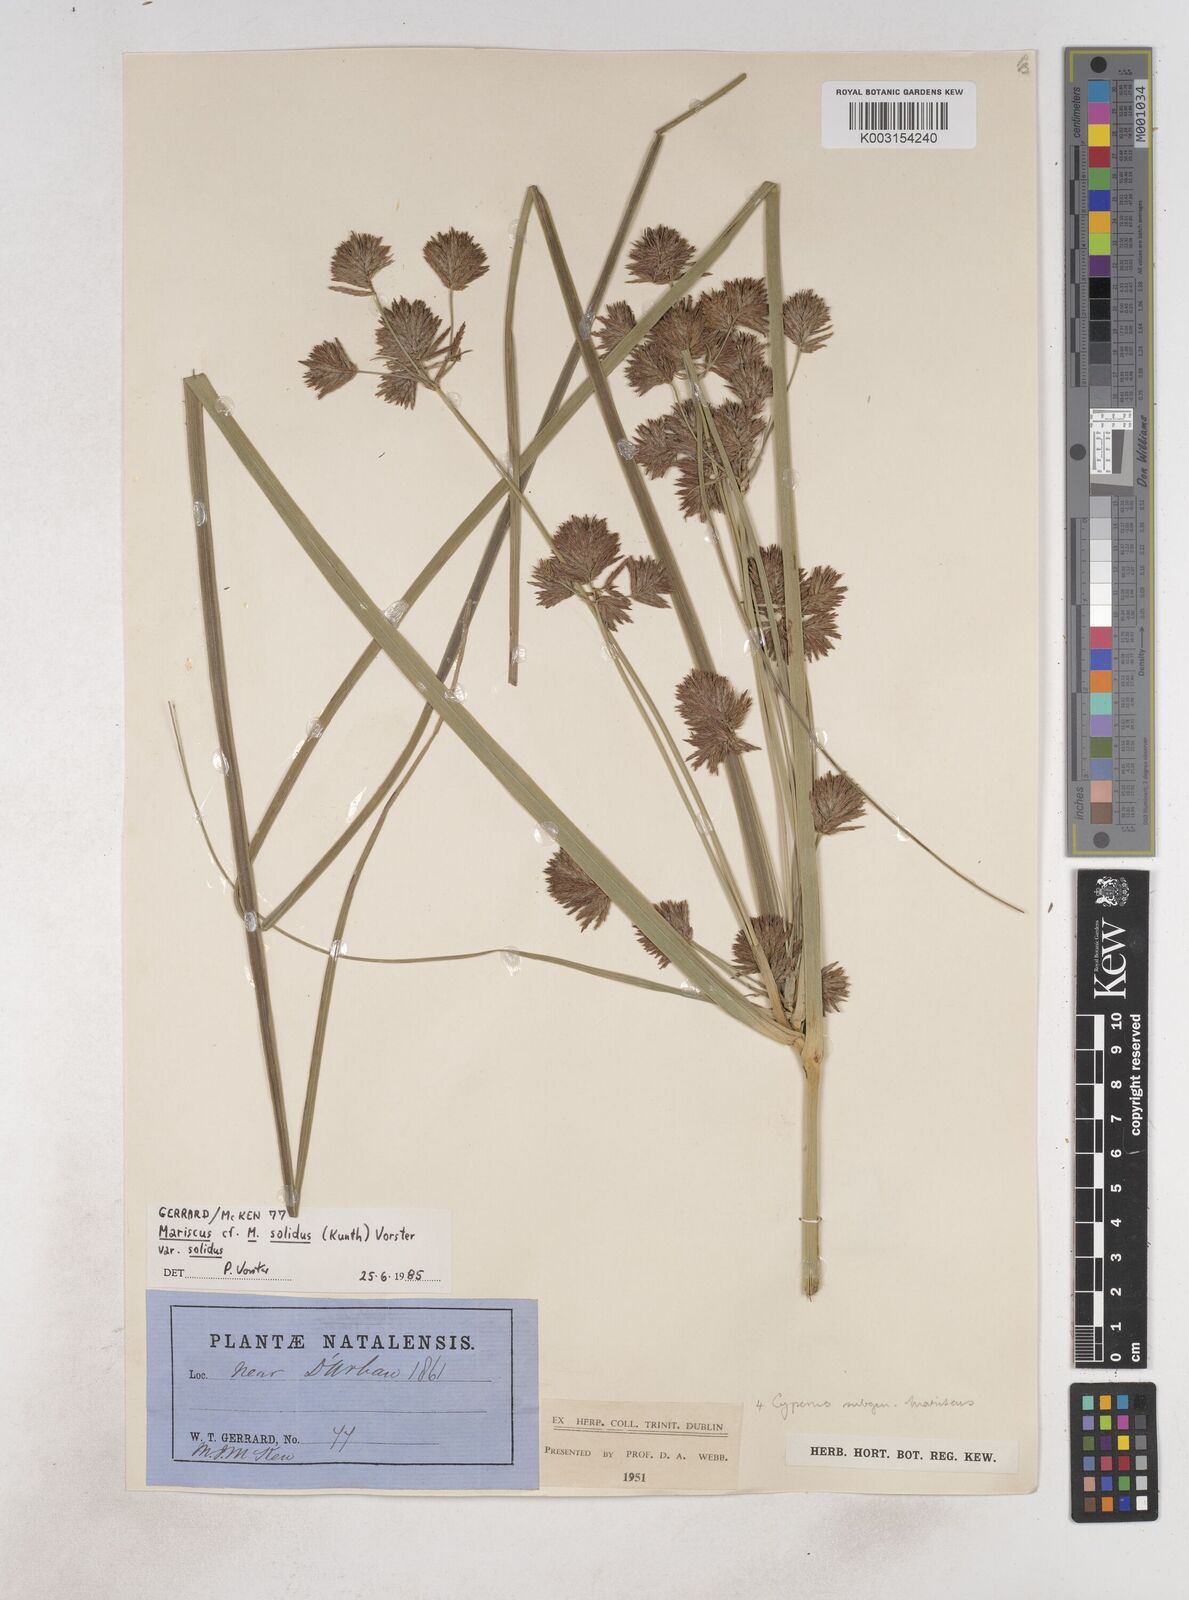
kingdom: Plantae
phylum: Tracheophyta
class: Liliopsida
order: Poales
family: Cyperaceae
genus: Cyperus
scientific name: Cyperus congestus
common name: Dense flat sedge
